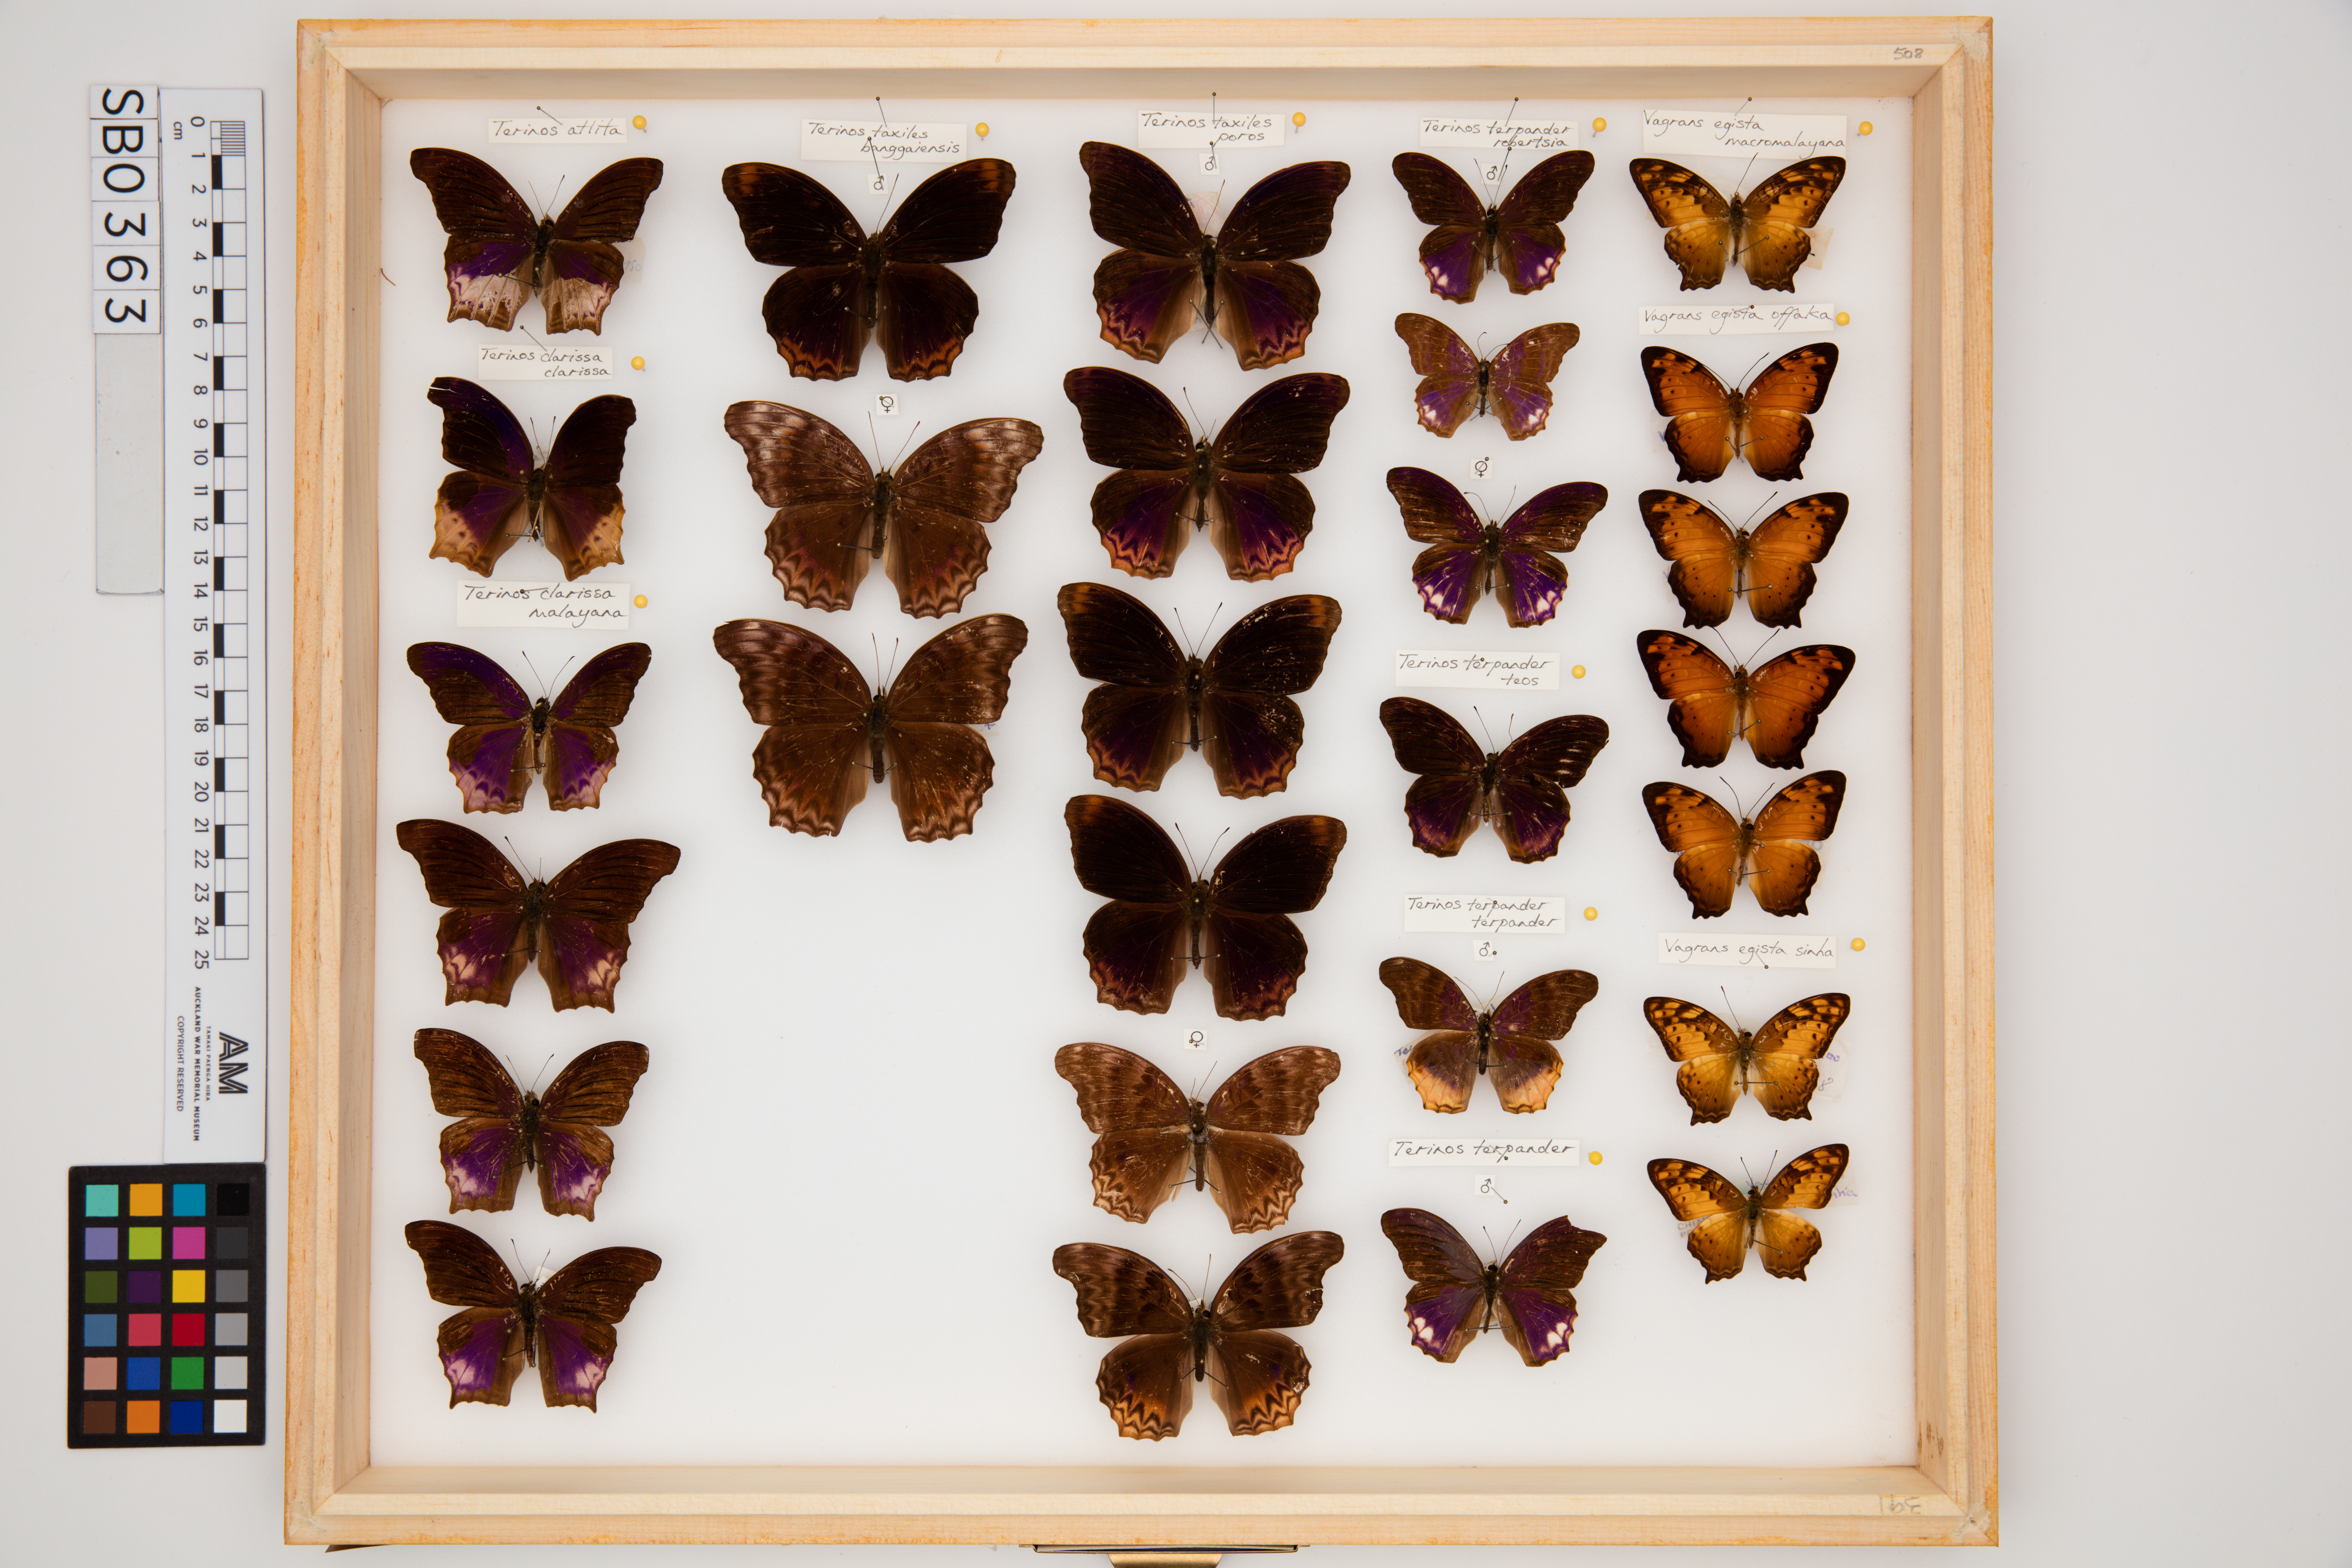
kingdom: Animalia
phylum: Arthropoda
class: Insecta
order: Lepidoptera
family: Nymphalidae
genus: Terinos
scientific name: Terinos taxiles
